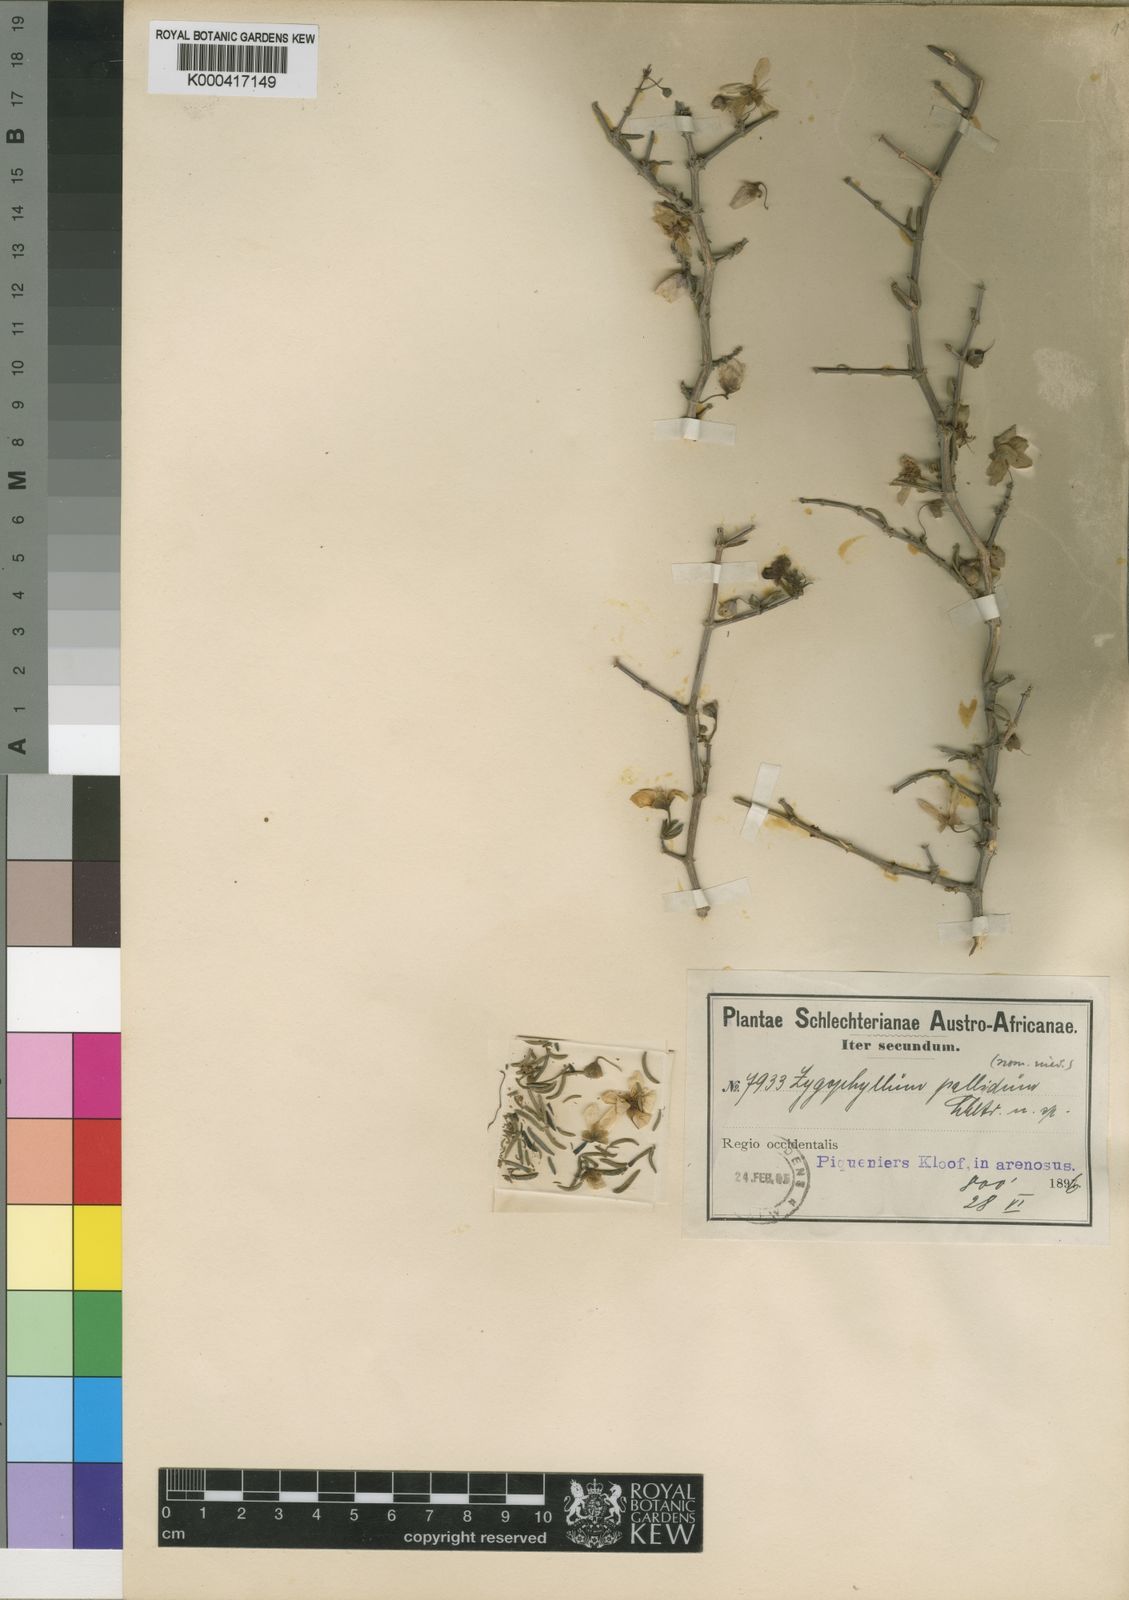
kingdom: Plantae
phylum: Tracheophyta
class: Magnoliopsida
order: Zygophyllales
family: Zygophyllaceae
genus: Zygophyllum
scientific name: Zygophyllum
